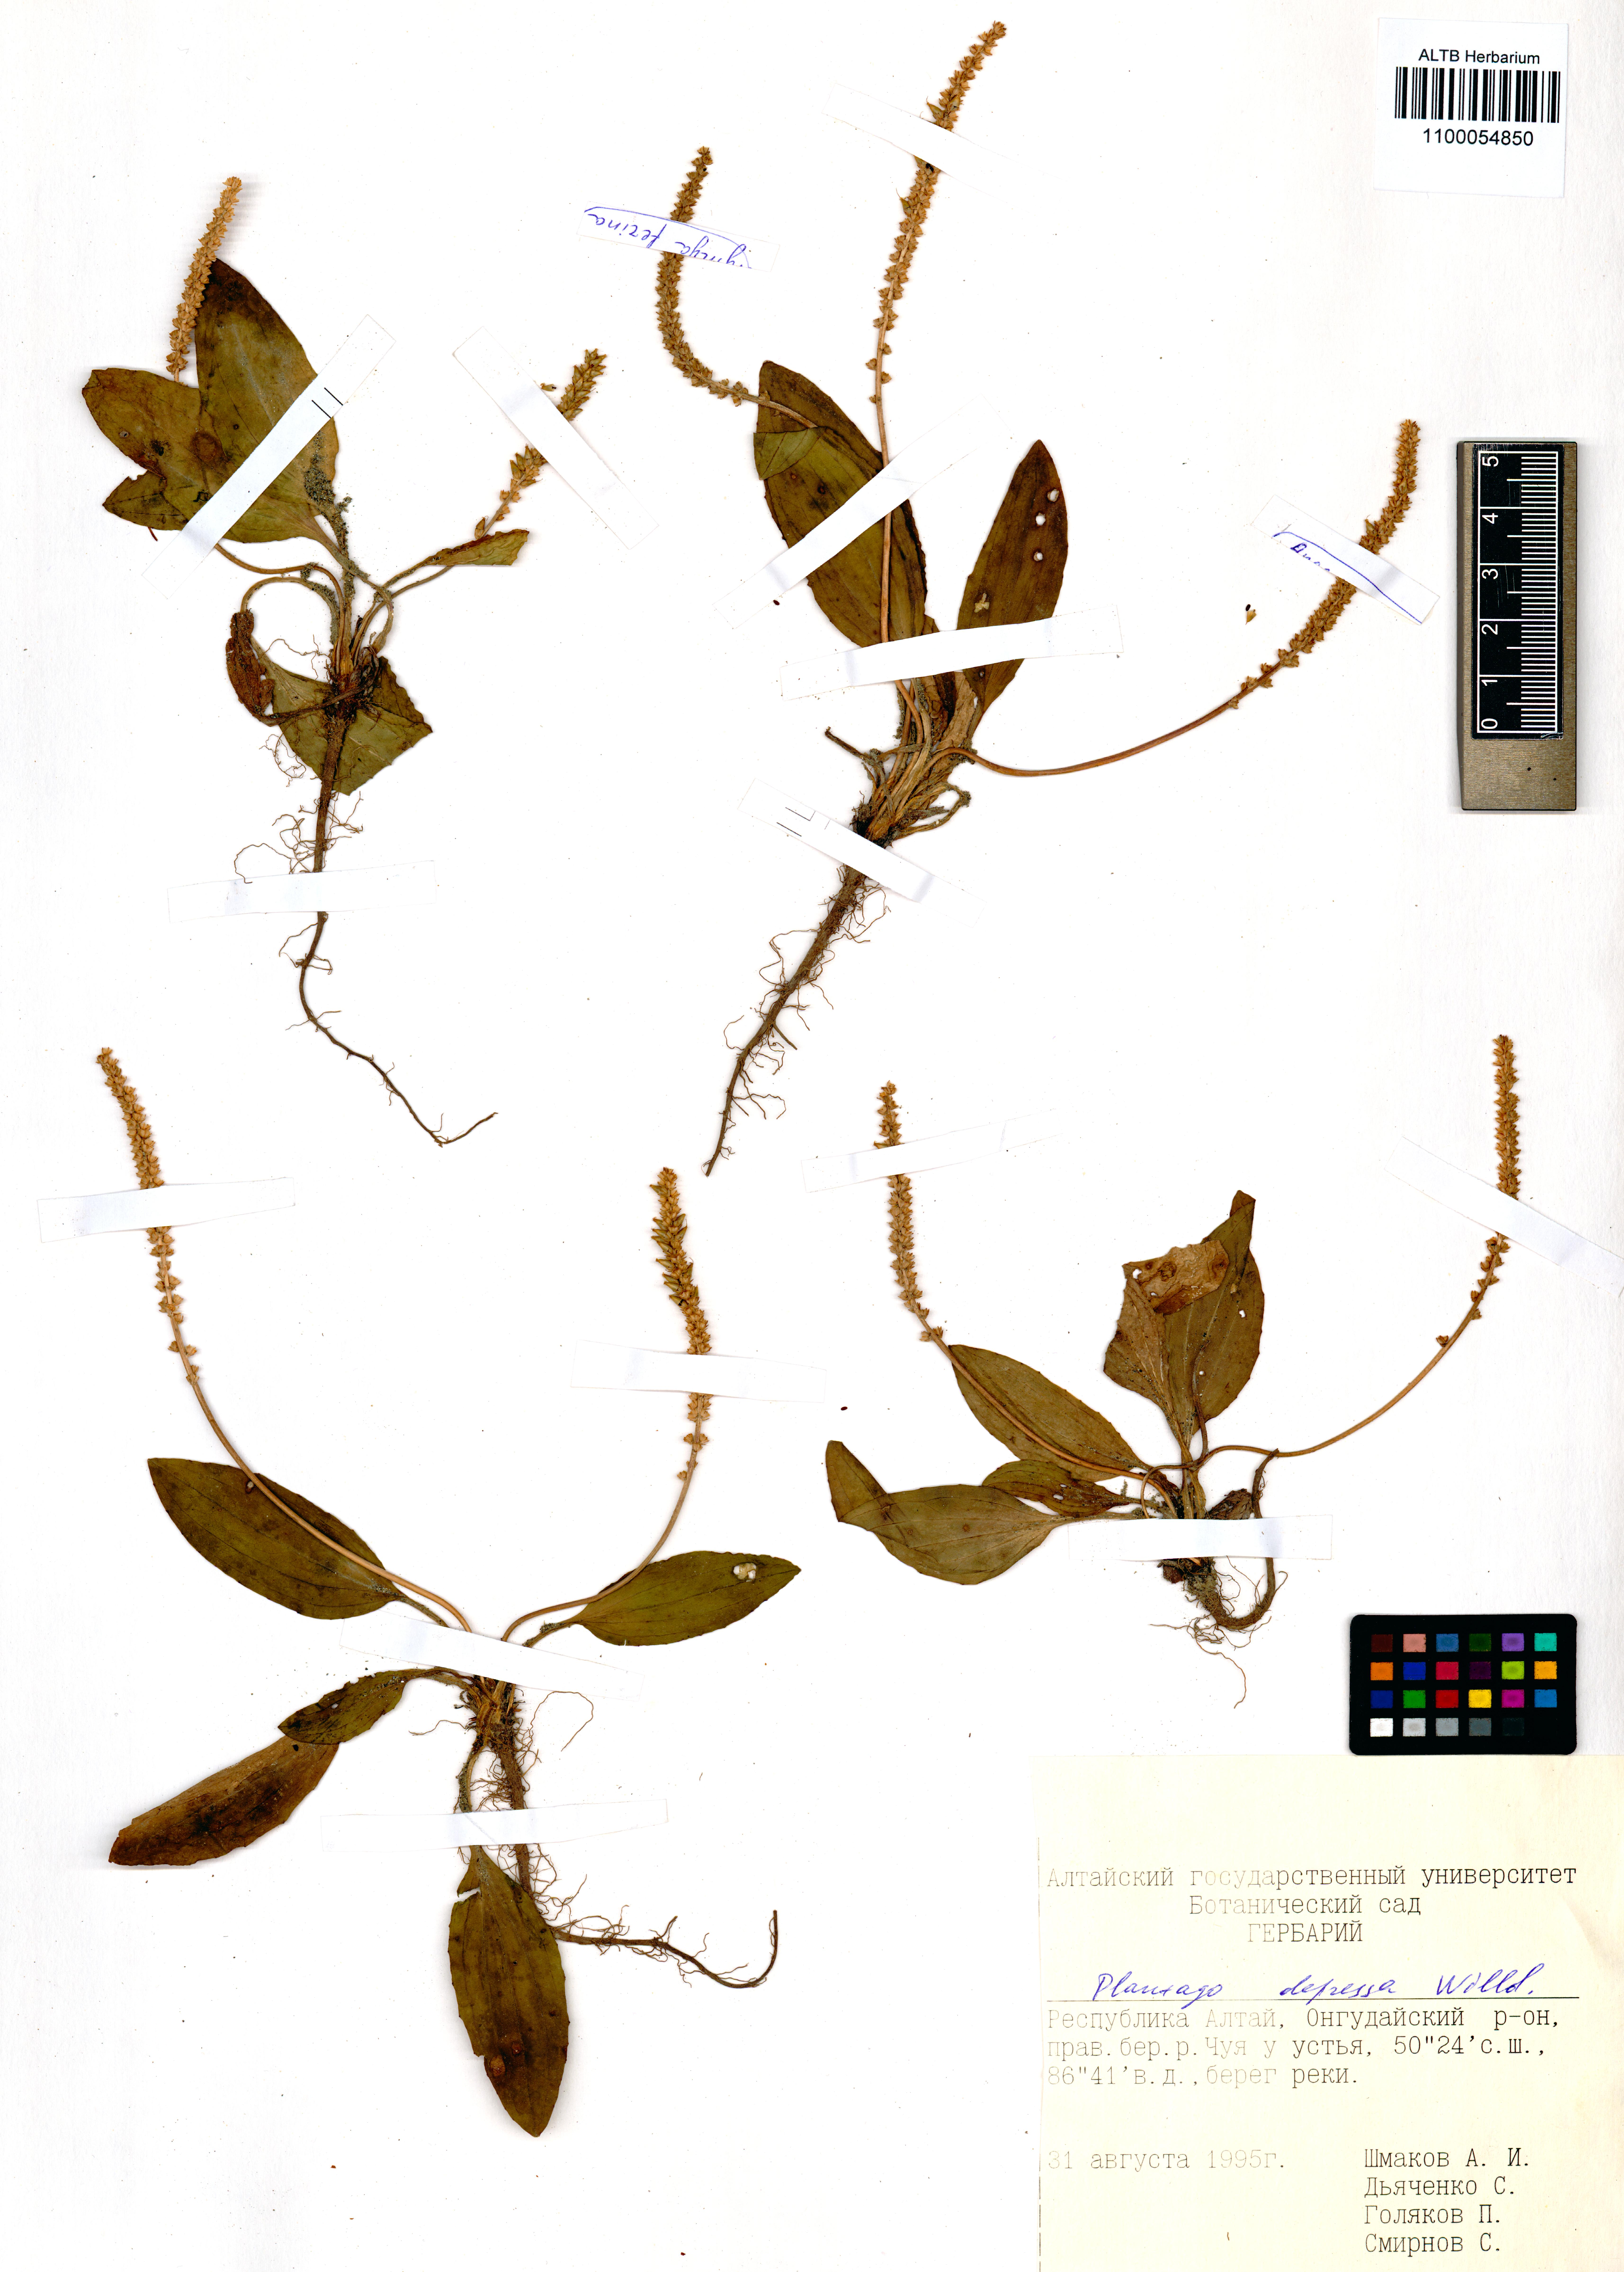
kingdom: Plantae
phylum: Tracheophyta
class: Magnoliopsida
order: Lamiales
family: Plantaginaceae
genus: Plantago
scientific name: Plantago depressa
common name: Depressed plantain
